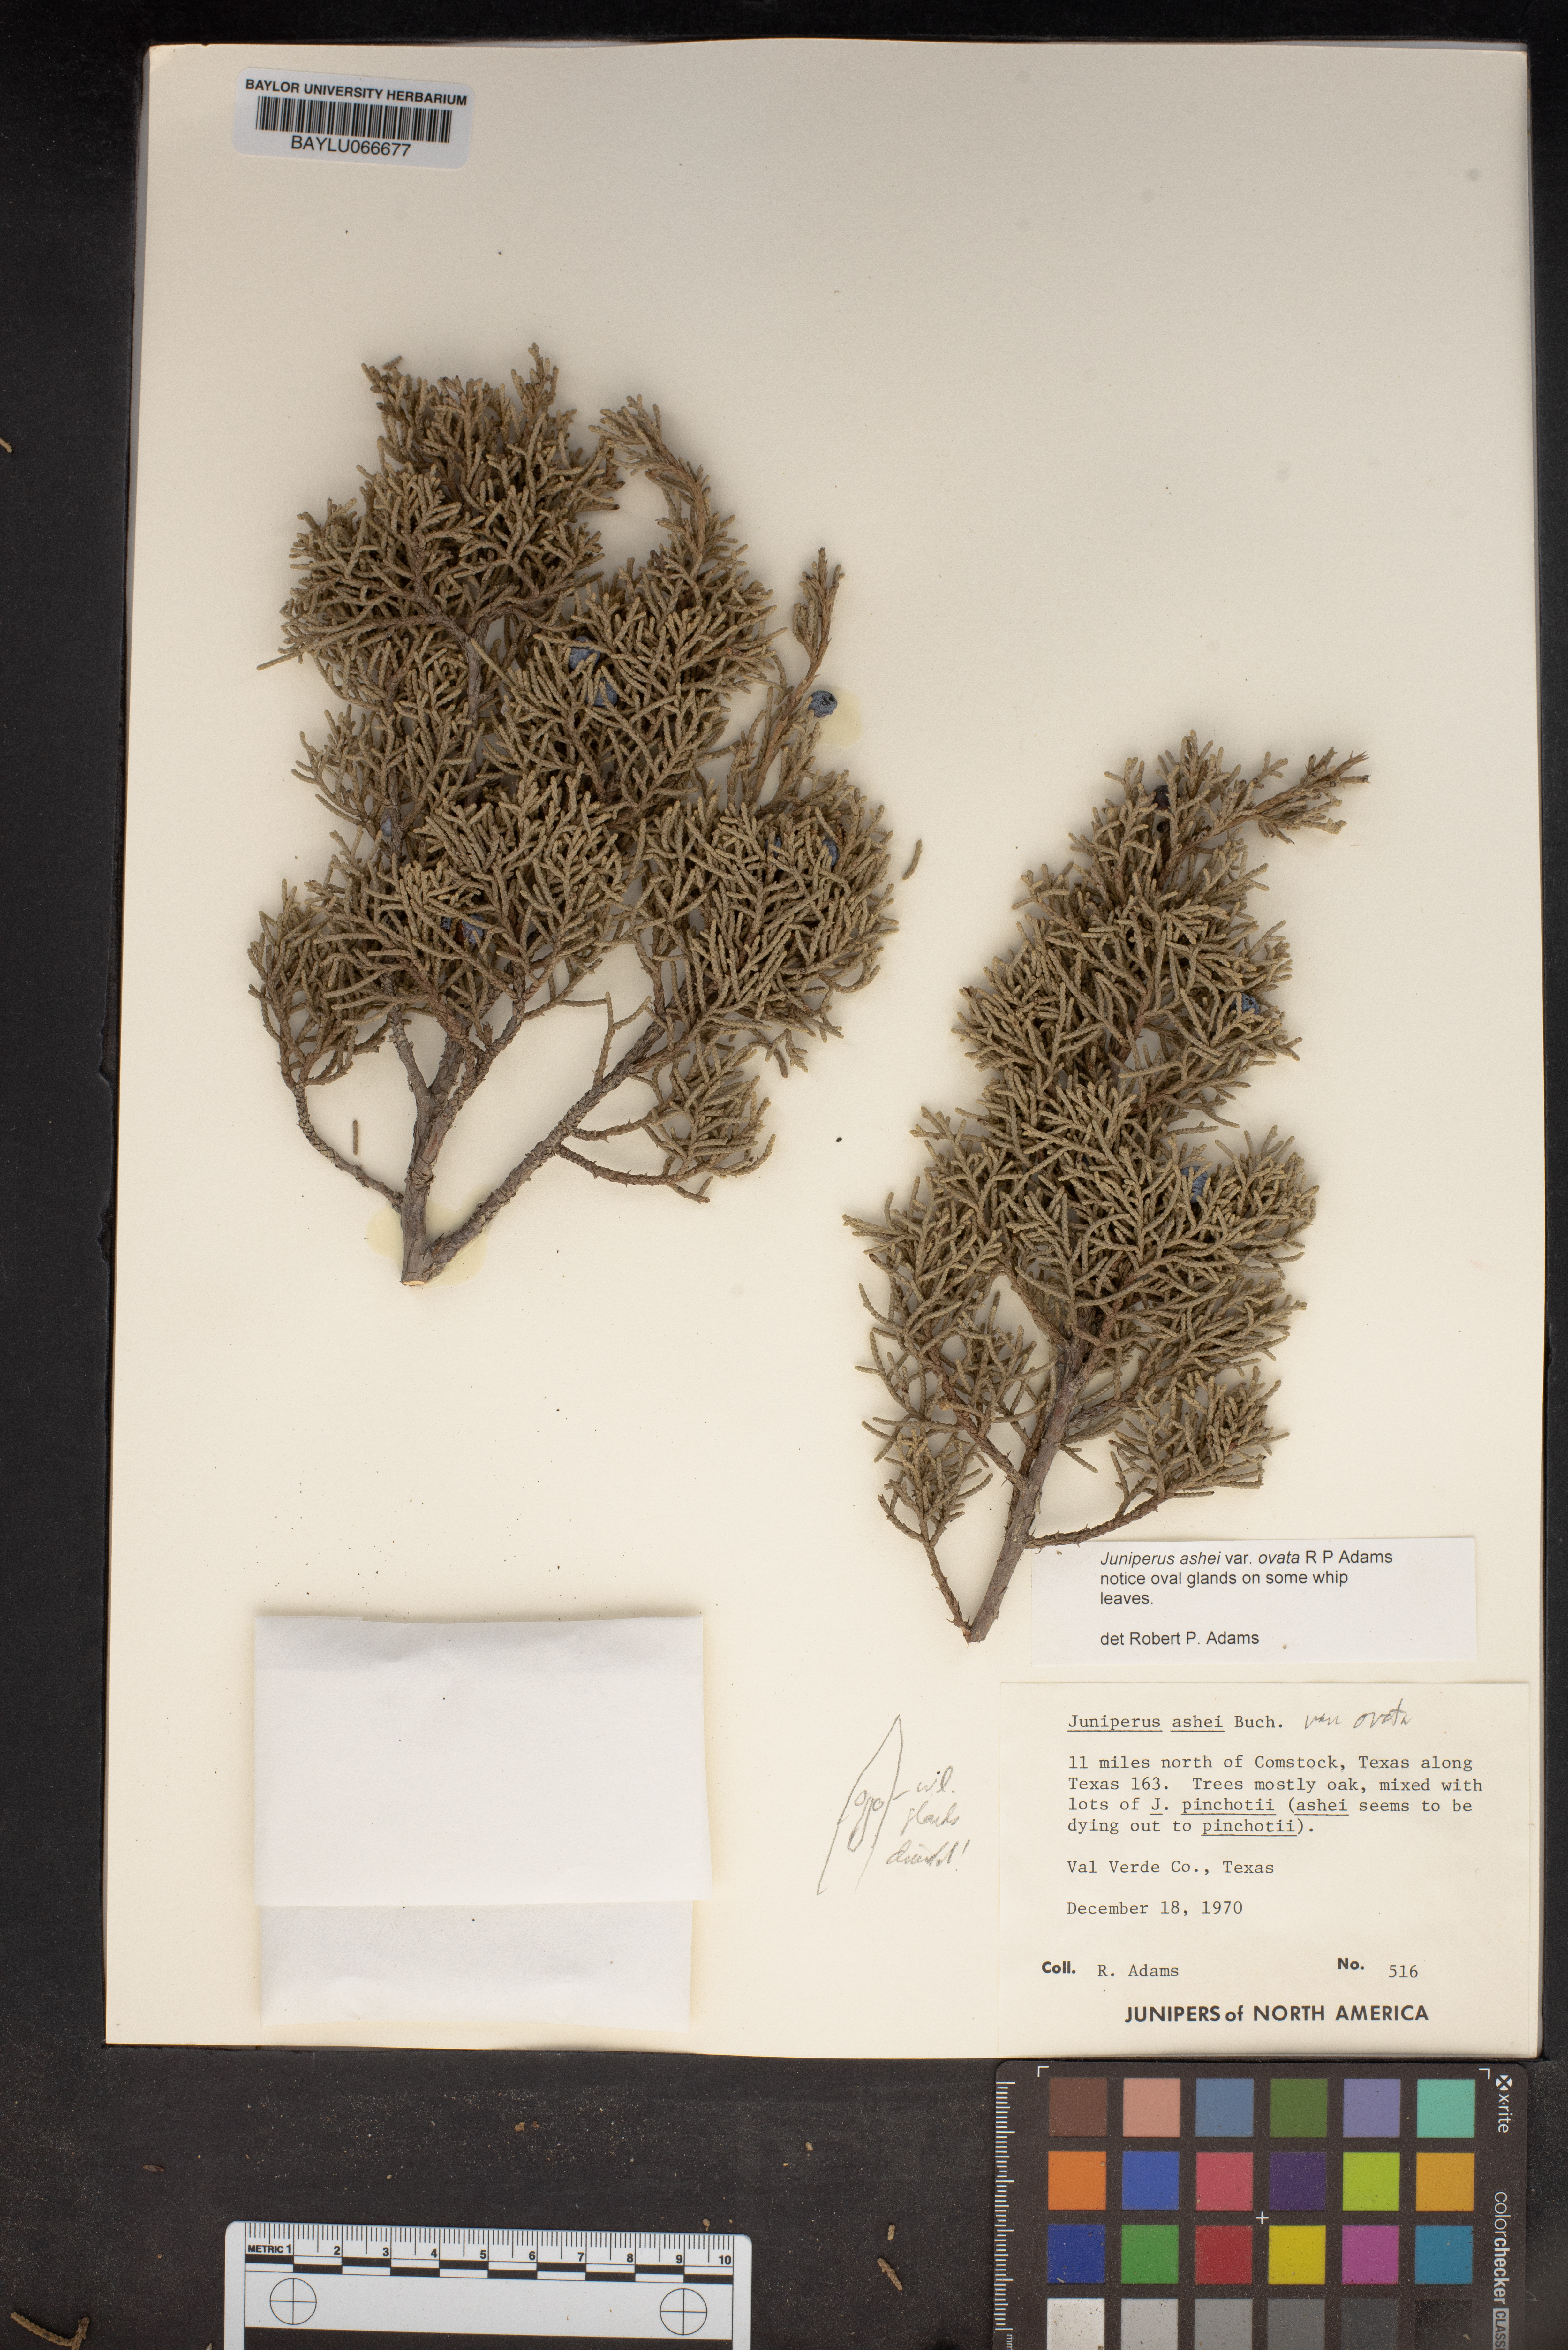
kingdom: Plantae
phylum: Tracheophyta
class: Pinopsida
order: Pinales
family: Cupressaceae
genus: Juniperus
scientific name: Juniperus ashei
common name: Mexican juniper
